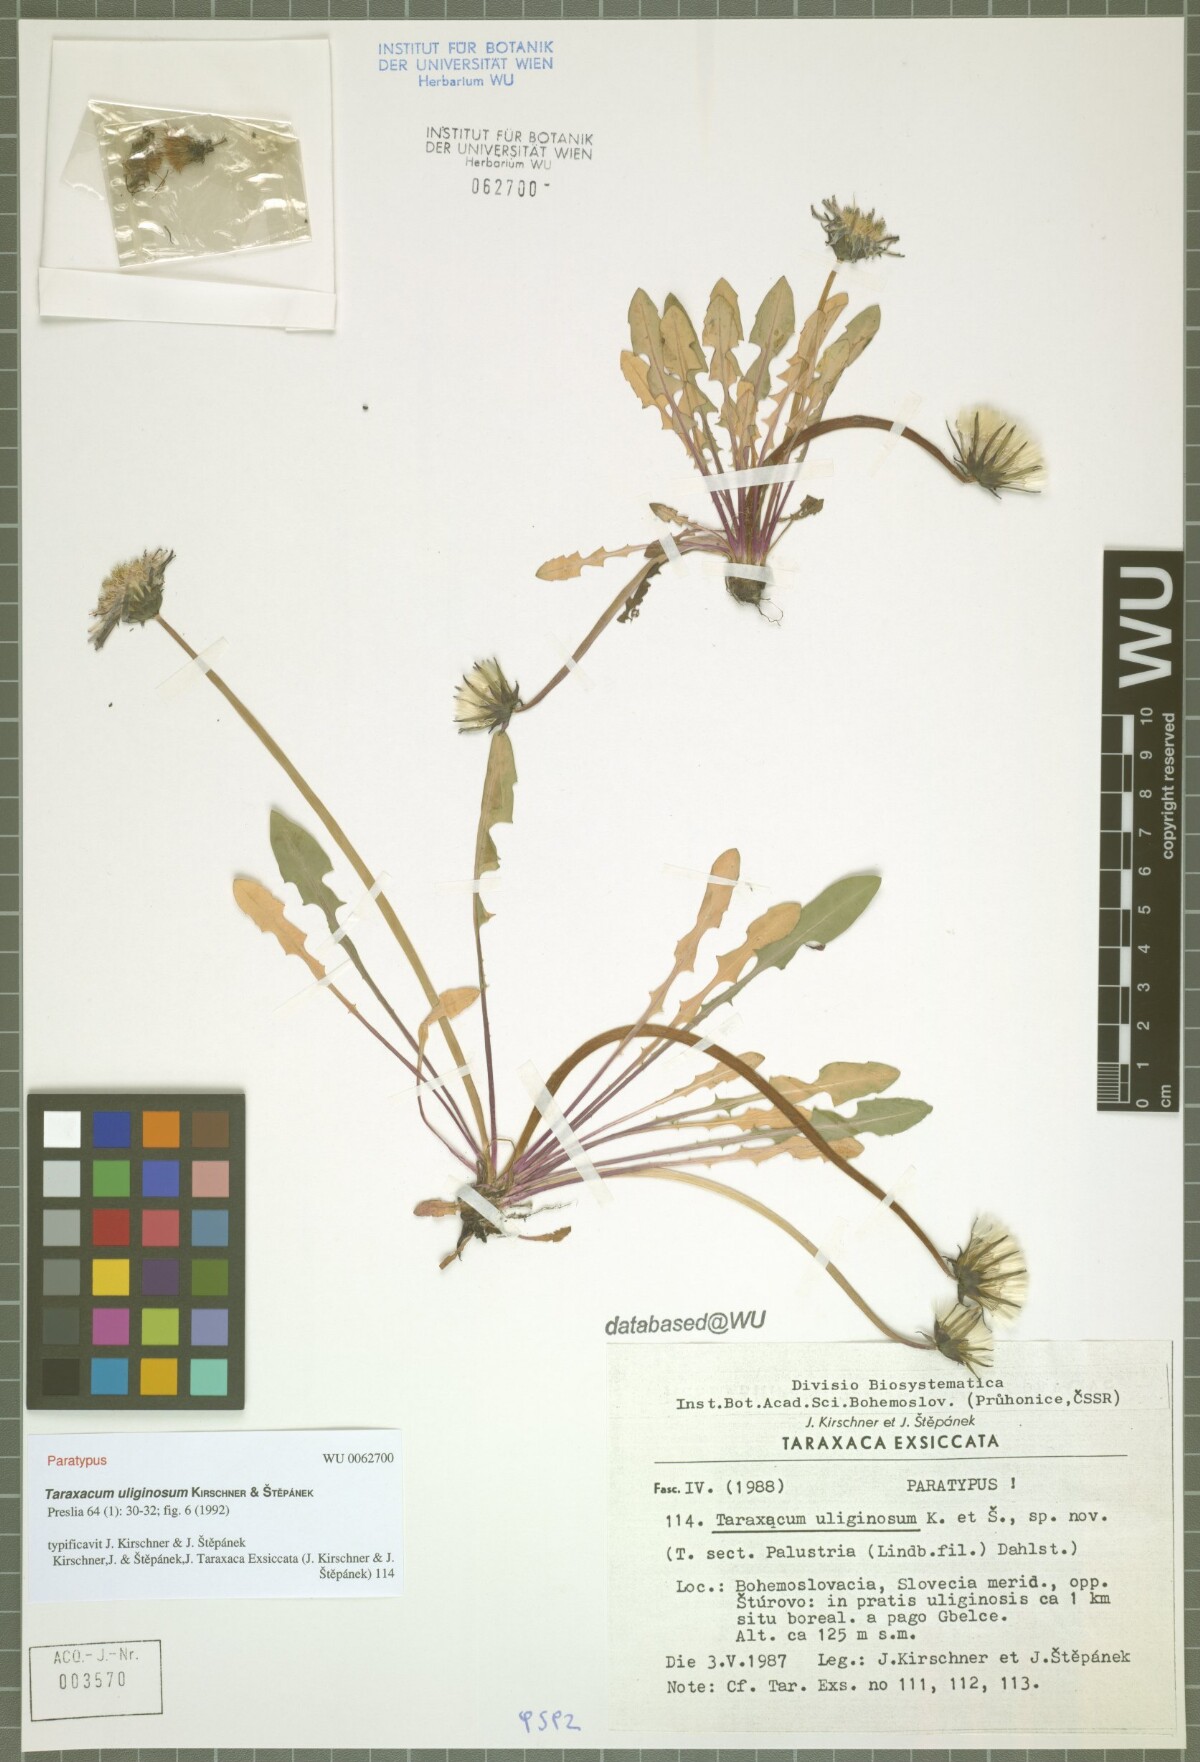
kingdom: Plantae
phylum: Tracheophyta
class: Magnoliopsida
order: Asterales
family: Asteraceae
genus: Taraxacum
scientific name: Taraxacum uliginosum
